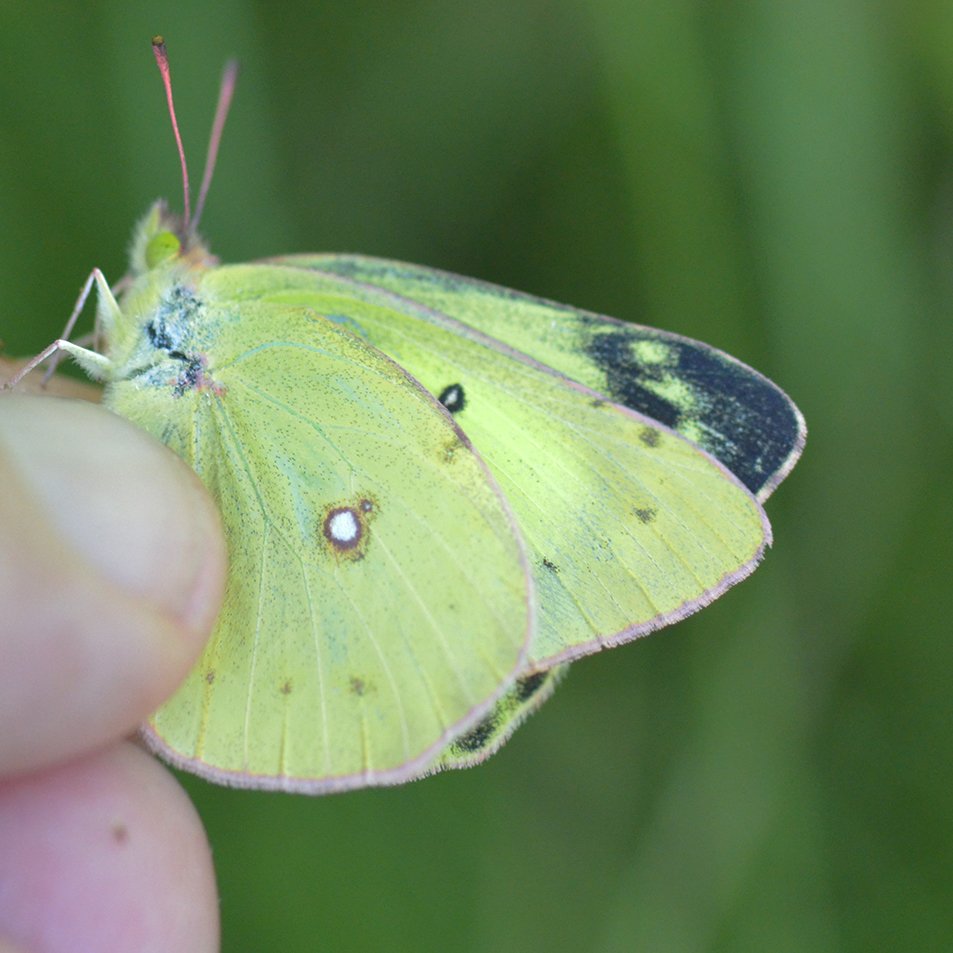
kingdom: Animalia
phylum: Arthropoda
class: Insecta
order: Lepidoptera
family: Pieridae
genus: Colias
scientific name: Colias philodice
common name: Clouded Sulphur
